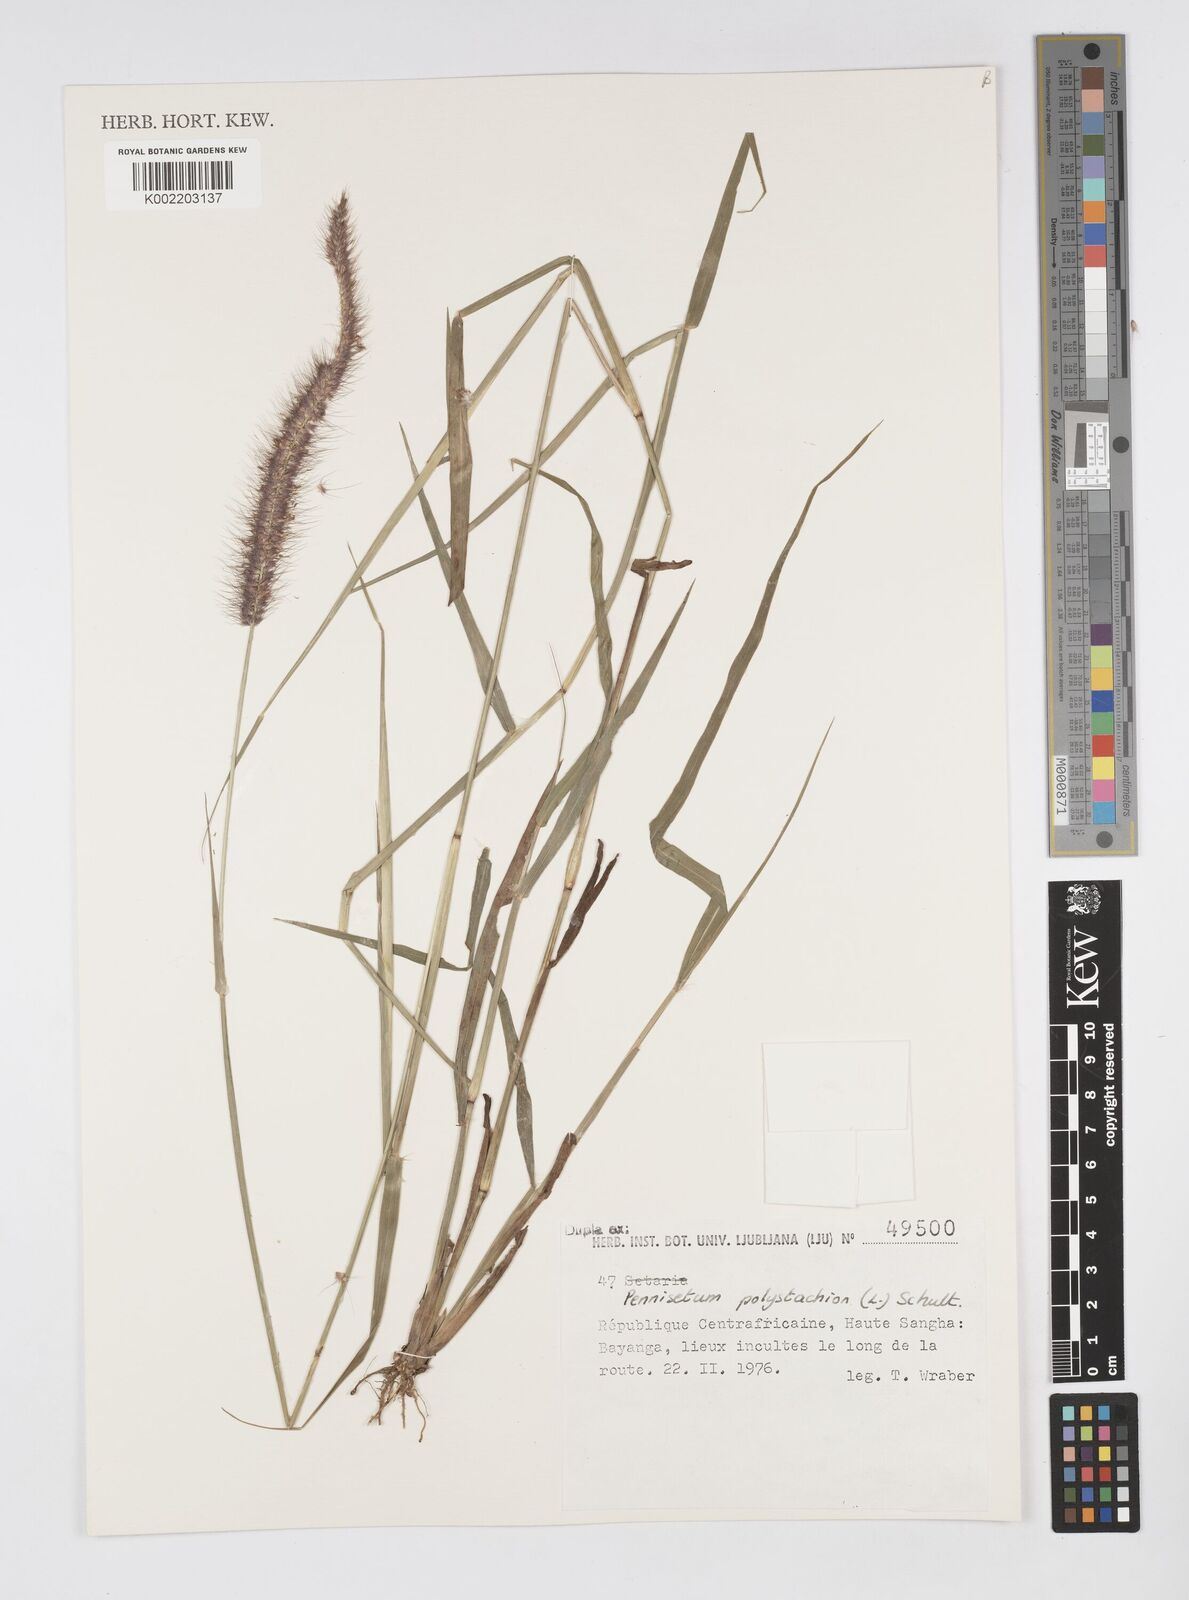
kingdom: Plantae
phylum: Tracheophyta
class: Liliopsida
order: Poales
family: Poaceae
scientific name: Poaceae
